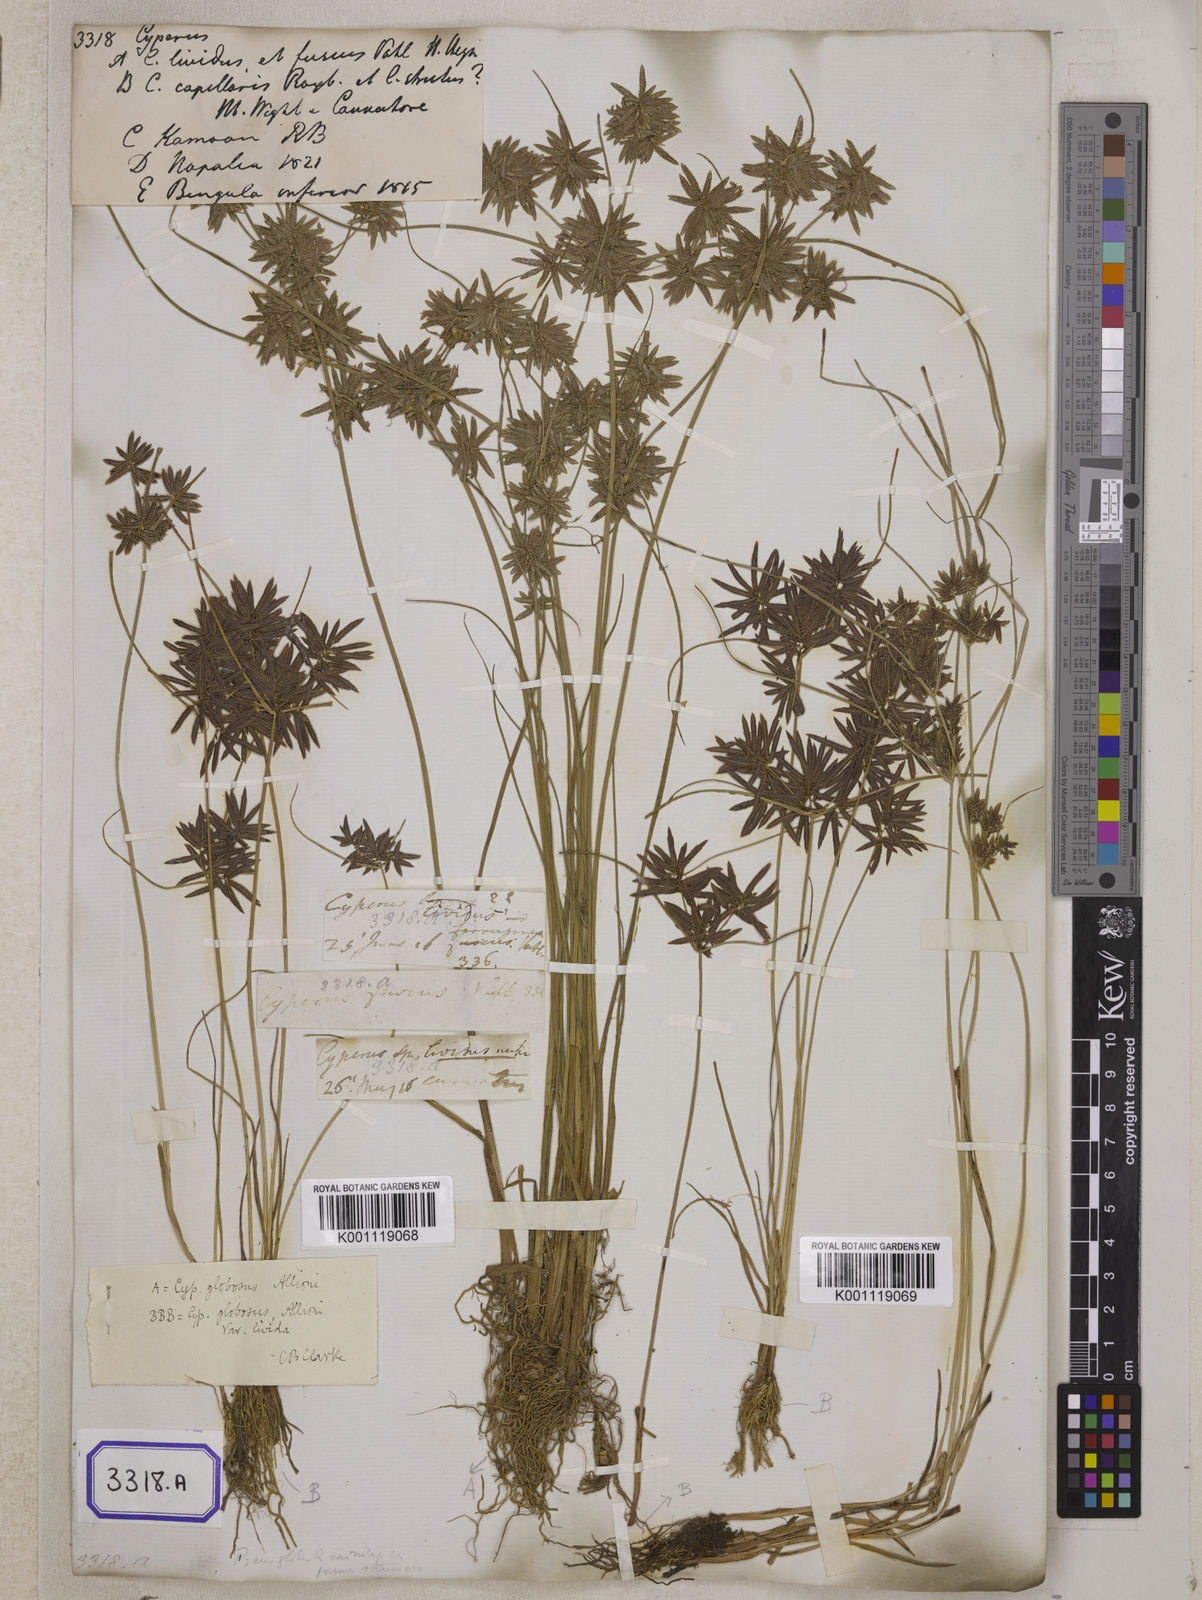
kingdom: Plantae
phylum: Tracheophyta
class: Liliopsida
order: Poales
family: Cyperaceae
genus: Cyperus
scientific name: Cyperus
